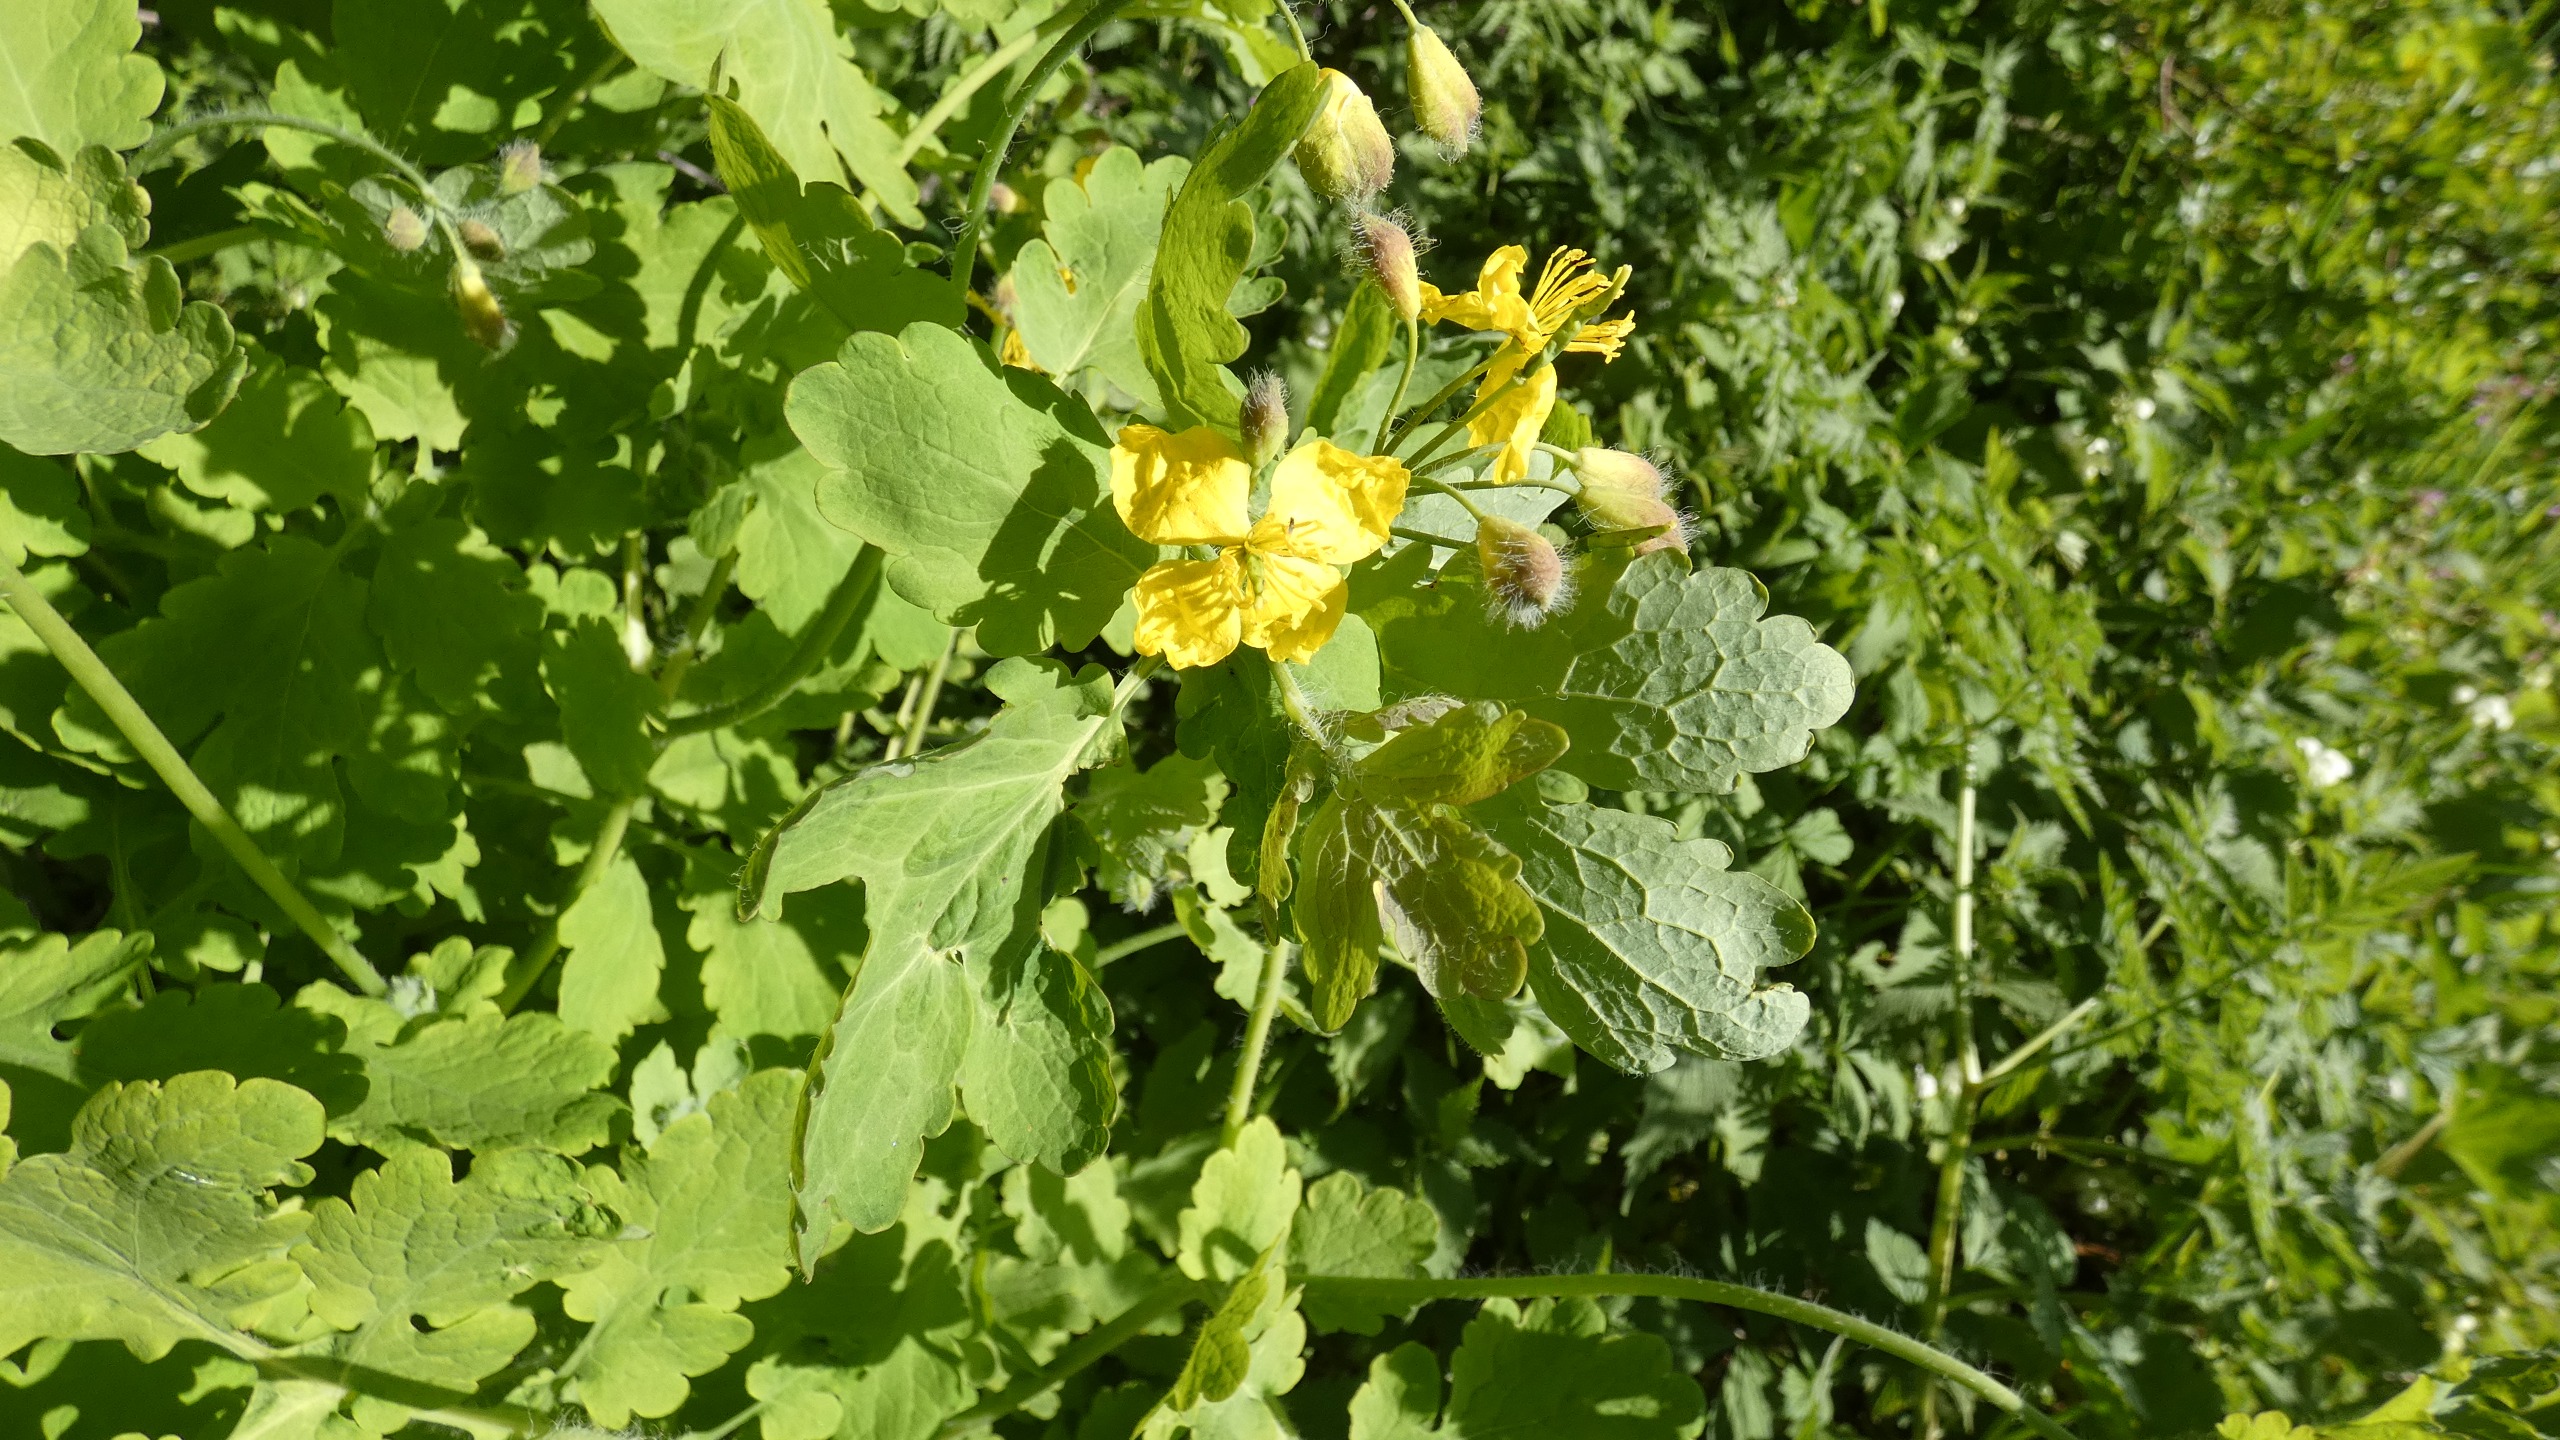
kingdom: Plantae
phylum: Tracheophyta
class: Magnoliopsida
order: Ranunculales
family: Papaveraceae
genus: Chelidonium
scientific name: Chelidonium majus
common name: Svaleurt
